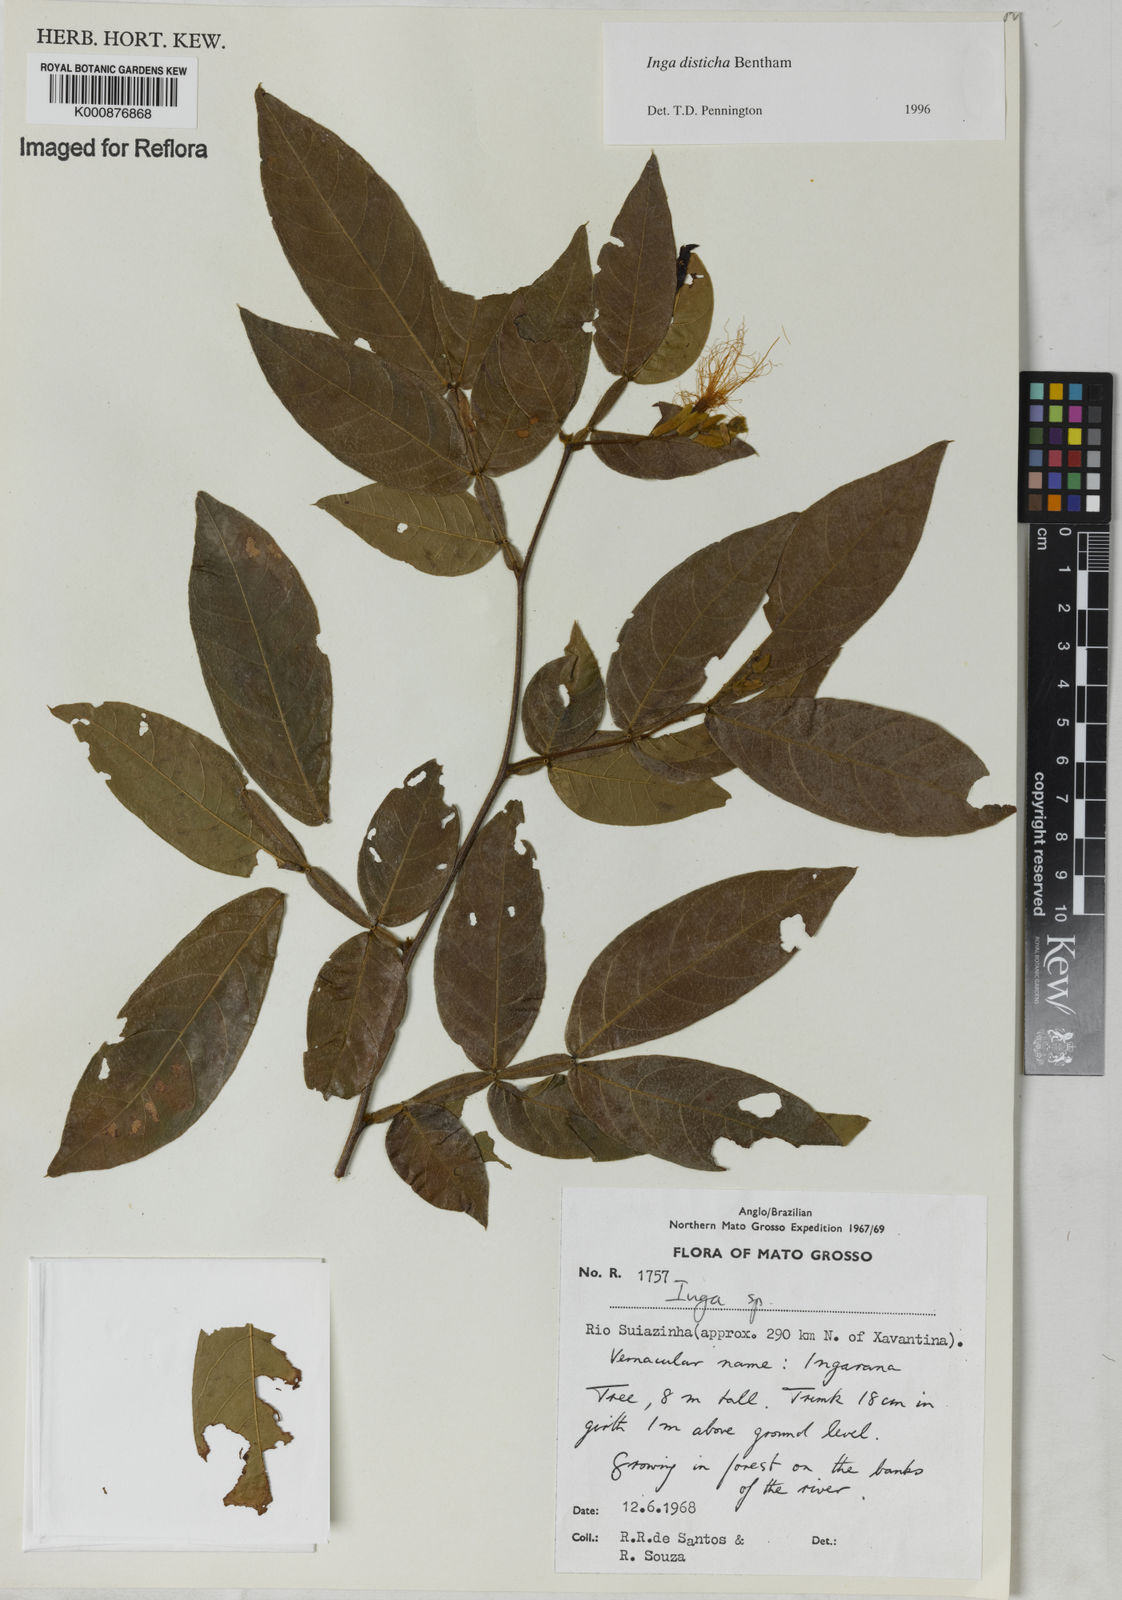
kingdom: Plantae
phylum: Tracheophyta
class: Magnoliopsida
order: Fabales
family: Fabaceae
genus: Inga
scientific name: Inga disticha
